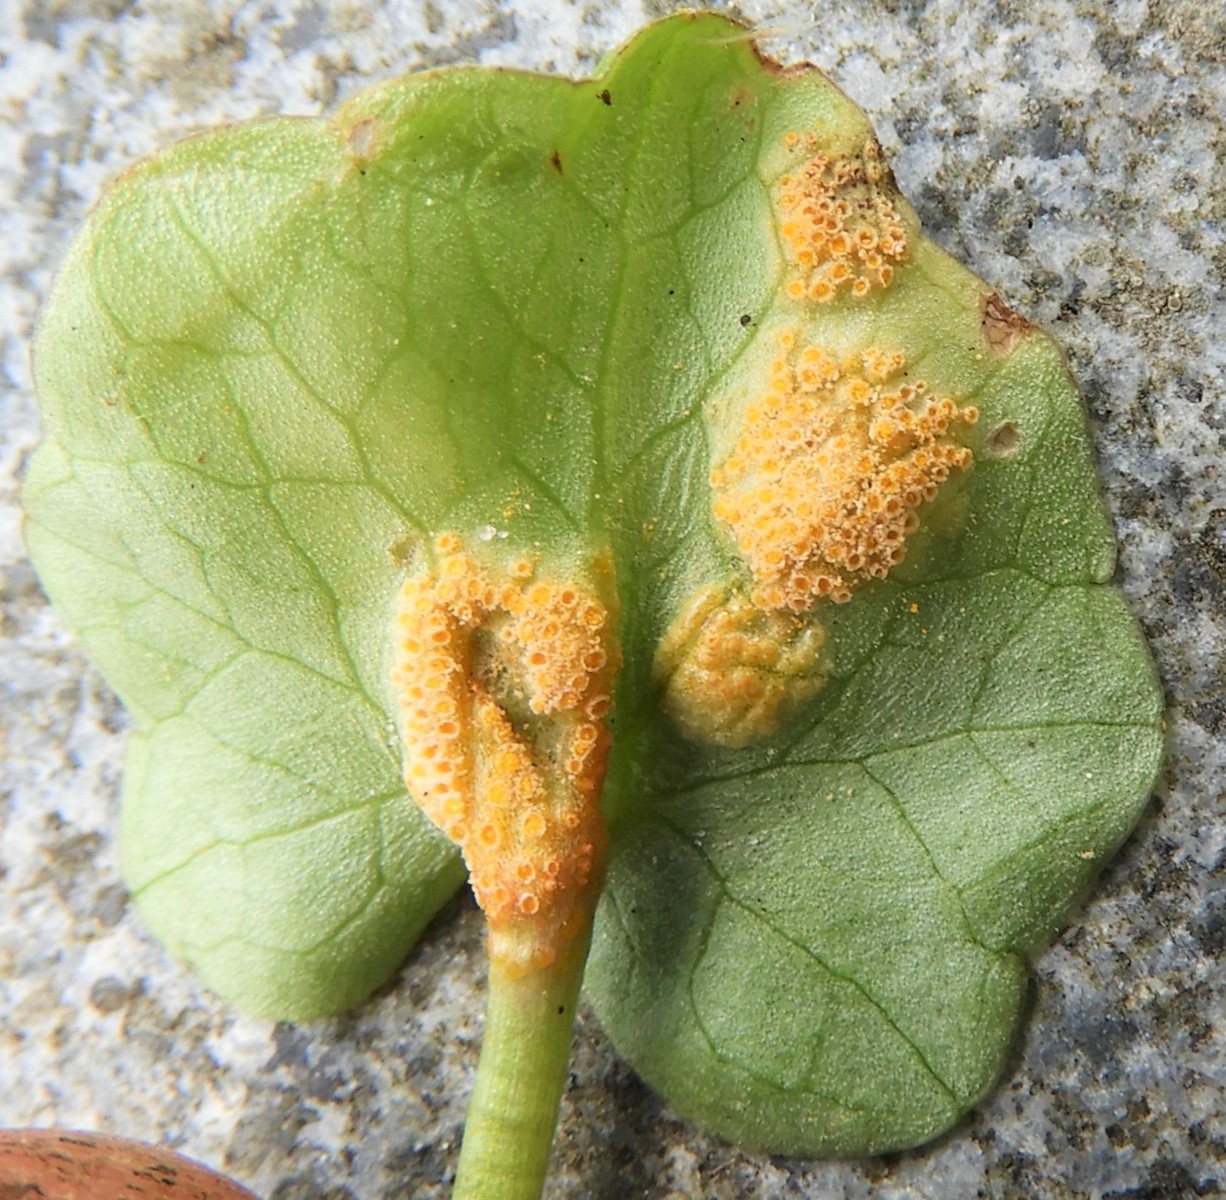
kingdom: Fungi
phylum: Basidiomycota
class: Pucciniomycetes
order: Pucciniales
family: Pucciniaceae
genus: Uromyces
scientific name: Uromyces dactylidis
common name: ranunkel-encellerust
